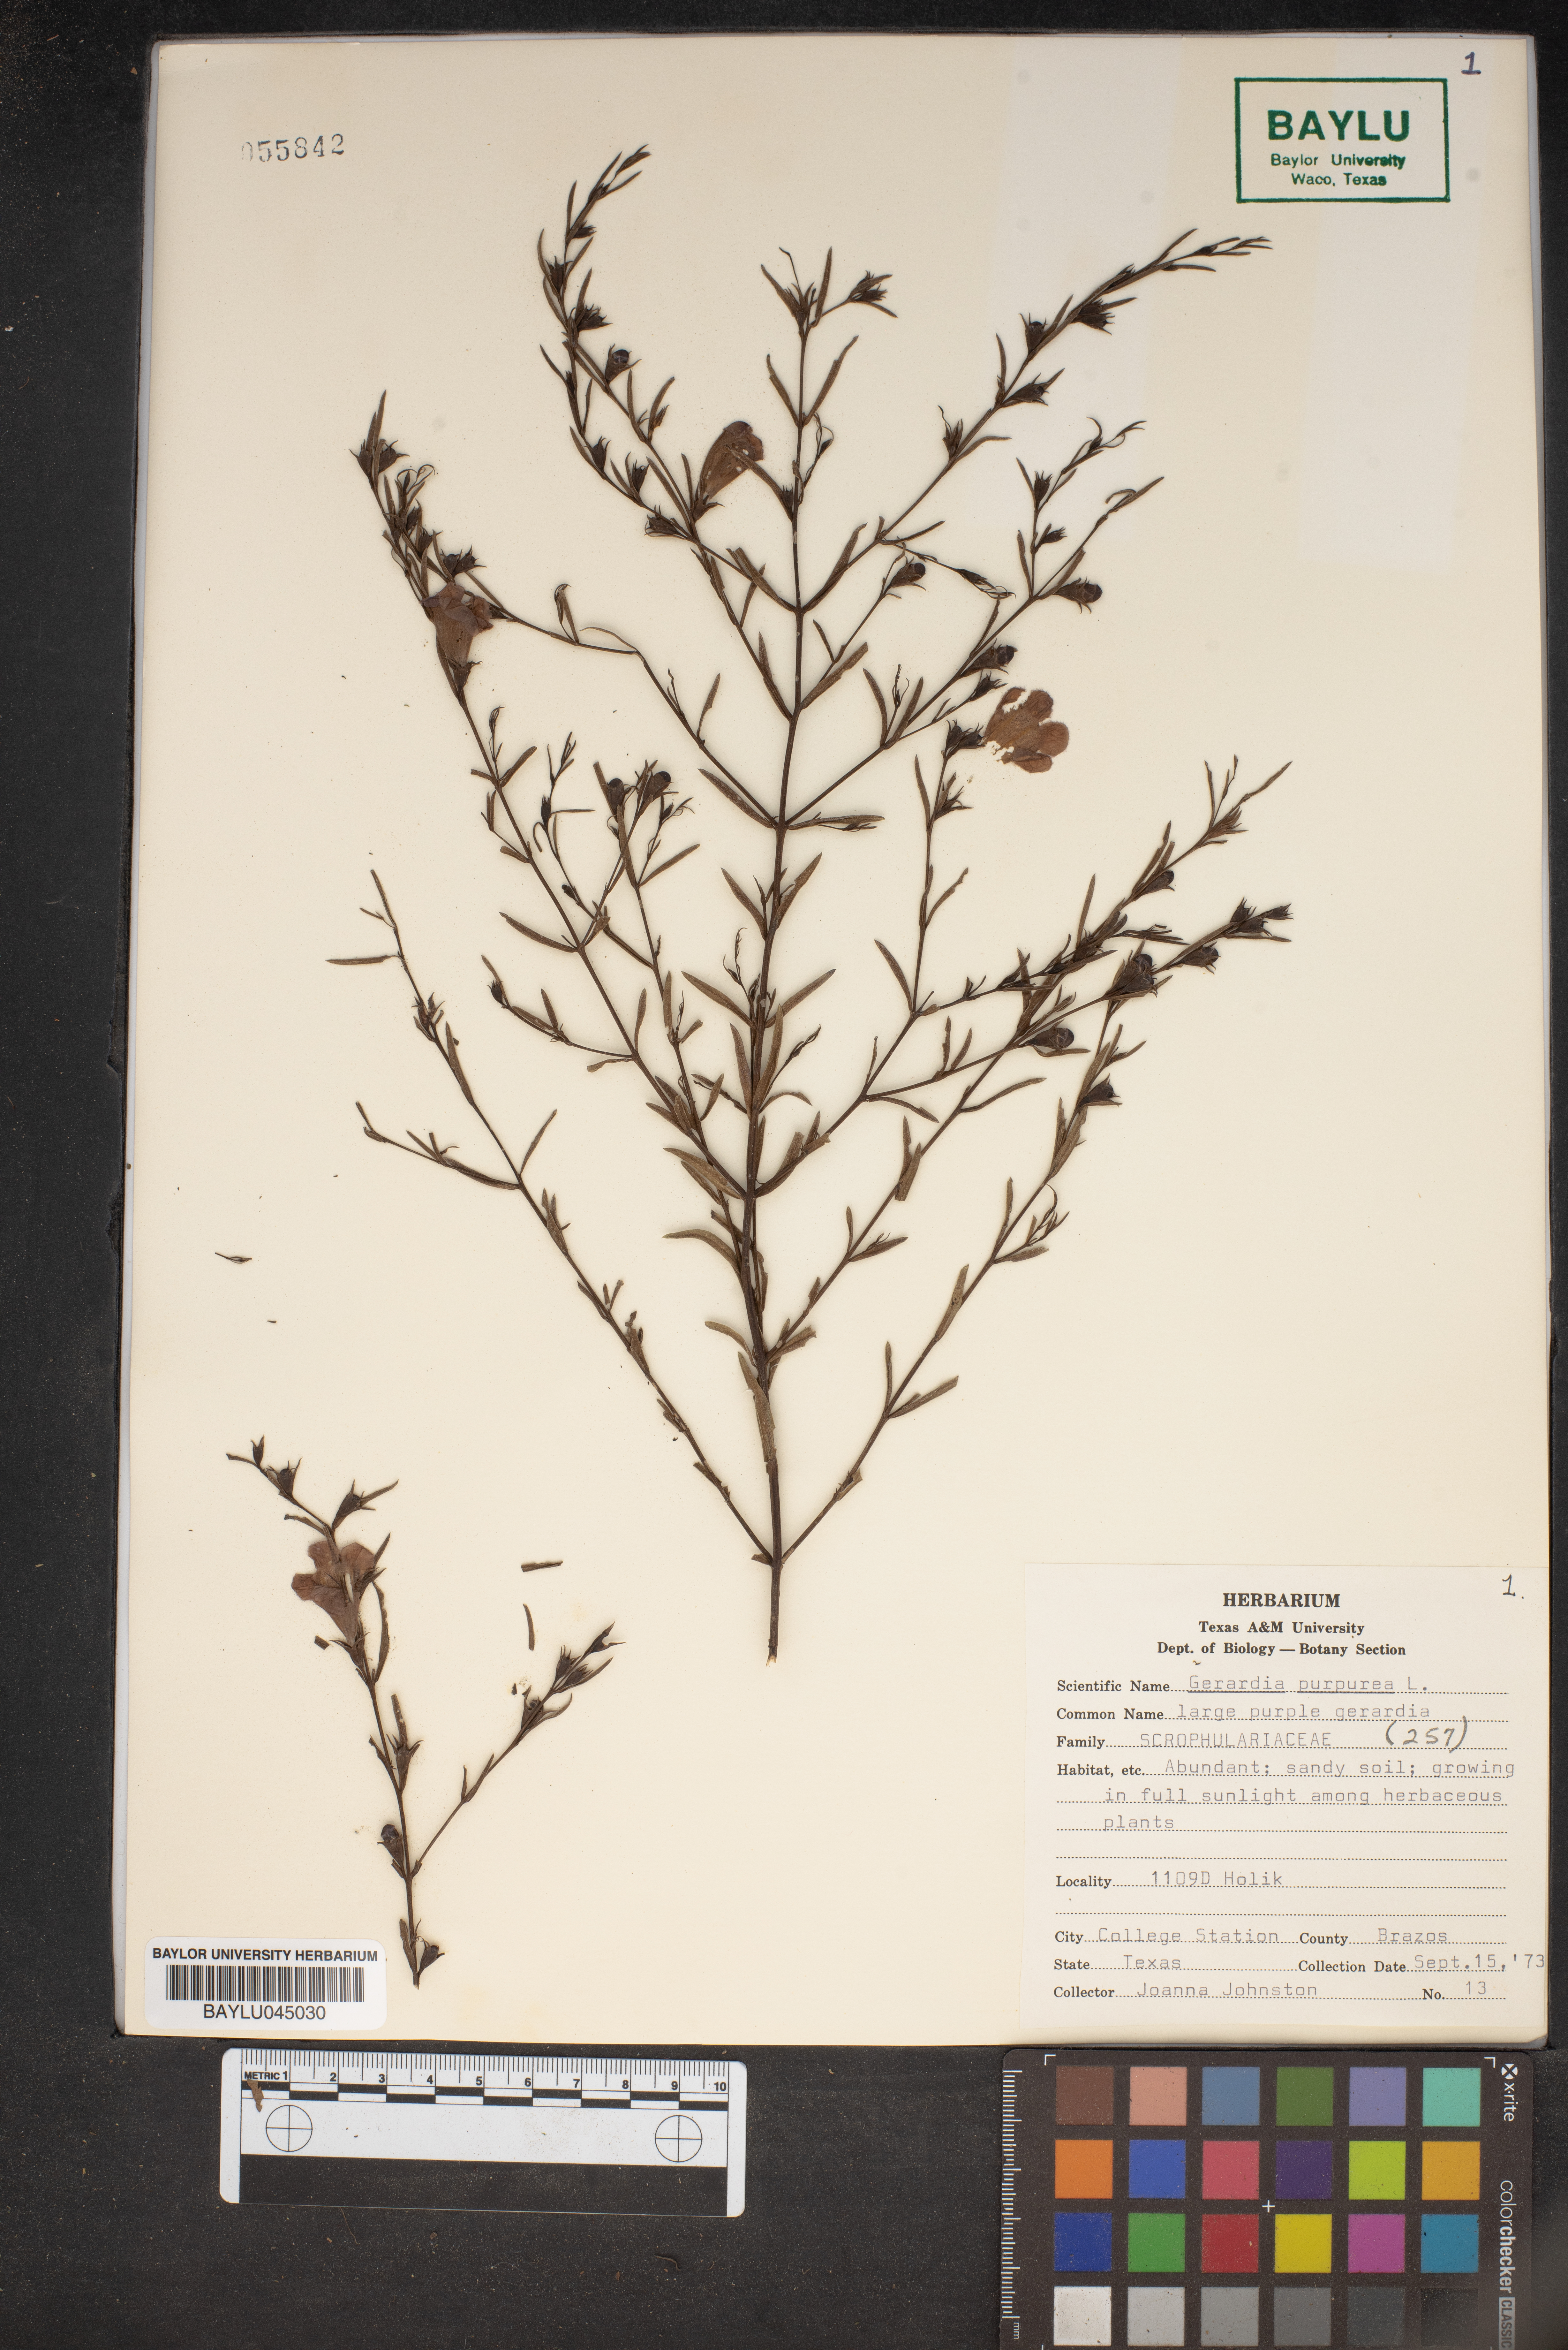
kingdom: Plantae
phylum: Tracheophyta
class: Magnoliopsida
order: Lamiales
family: Orobanchaceae
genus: Agalinis
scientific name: Agalinis purpurea
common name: Purple false foxglove
